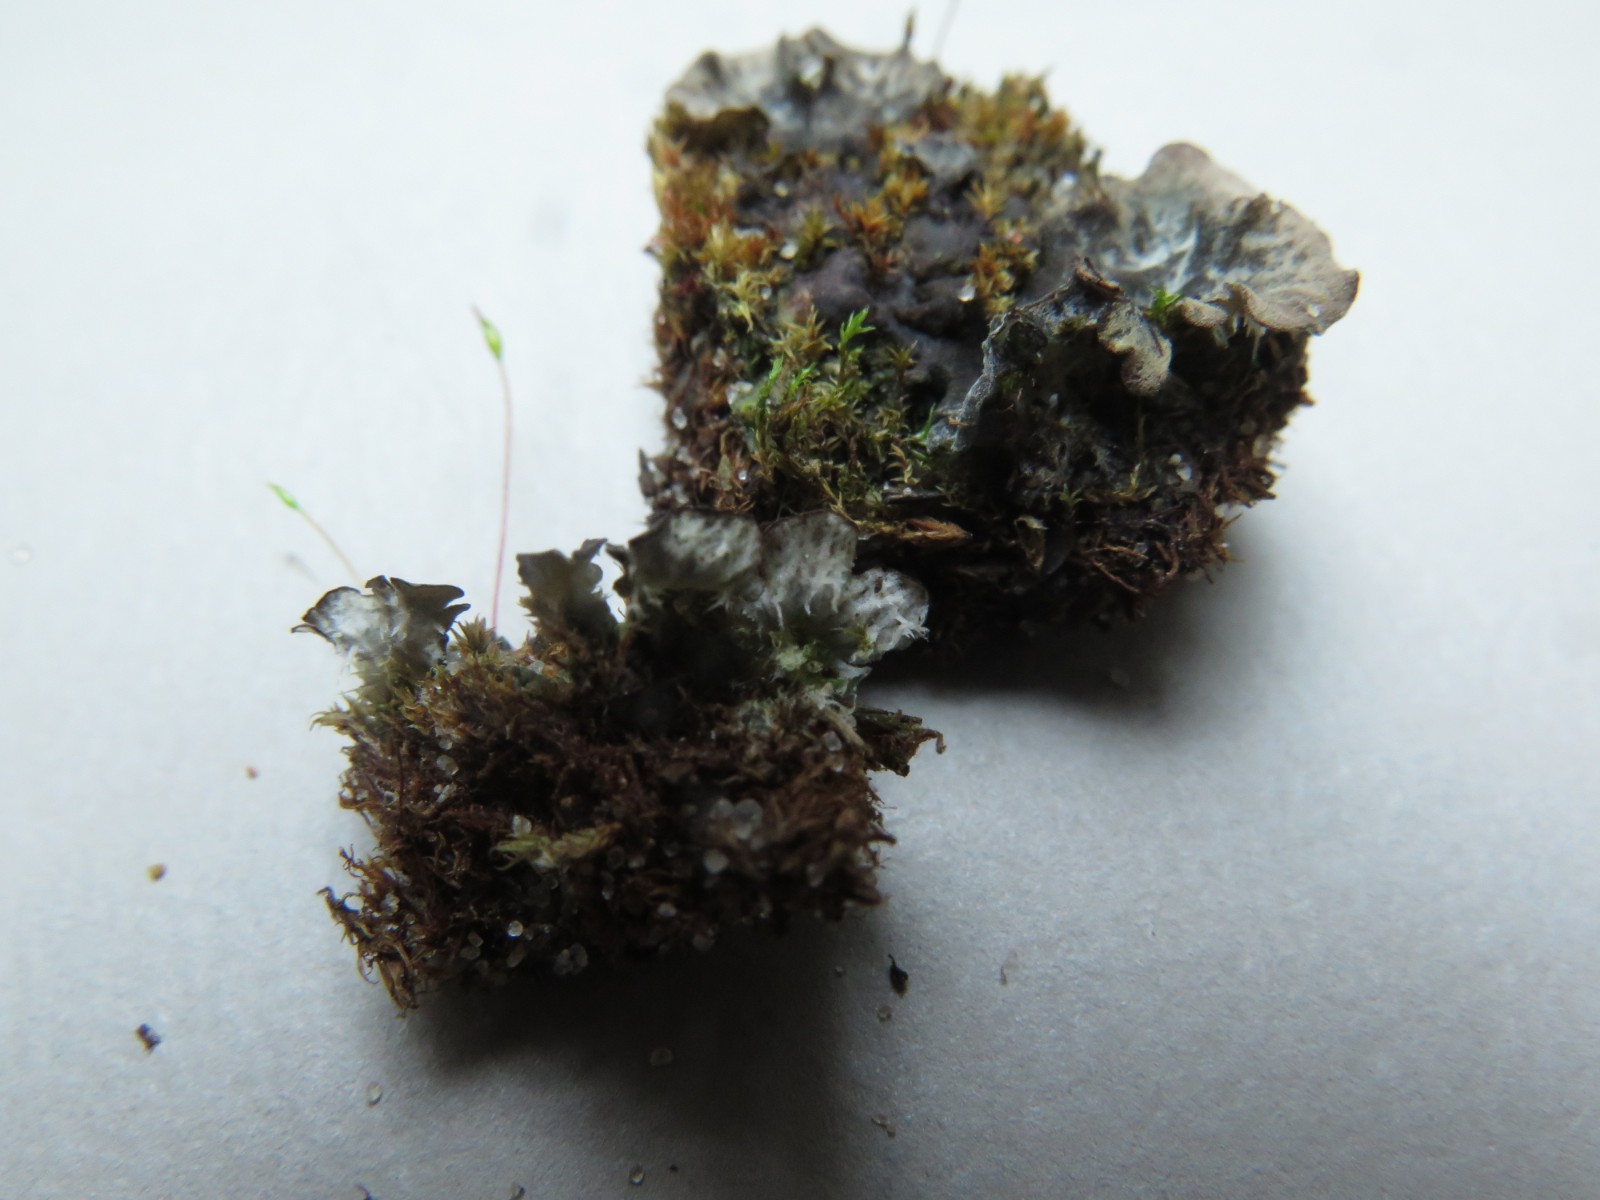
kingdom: Fungi
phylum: Ascomycota
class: Lecanoromycetes
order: Peltigerales
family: Peltigeraceae
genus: Peltigera
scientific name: Peltigera membranacea
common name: tynd skjoldlav
